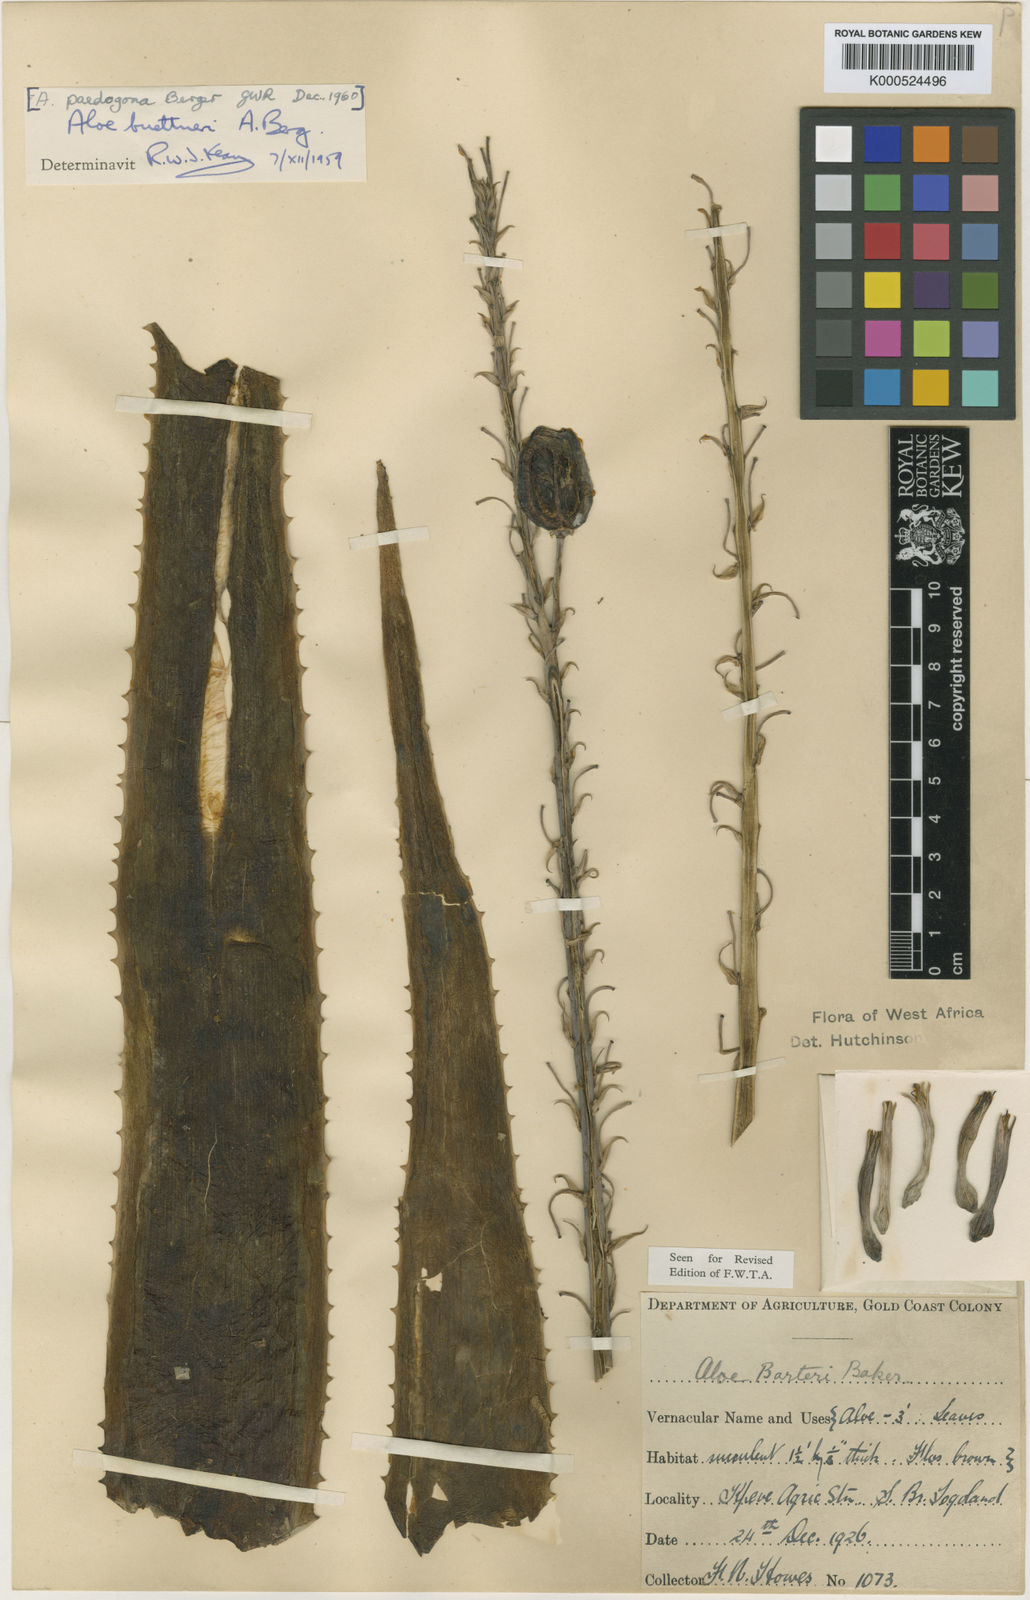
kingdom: Plantae
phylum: Tracheophyta
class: Liliopsida
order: Asparagales
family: Asphodelaceae
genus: Aloe
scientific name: Aloe buettneri
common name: West african aloe
